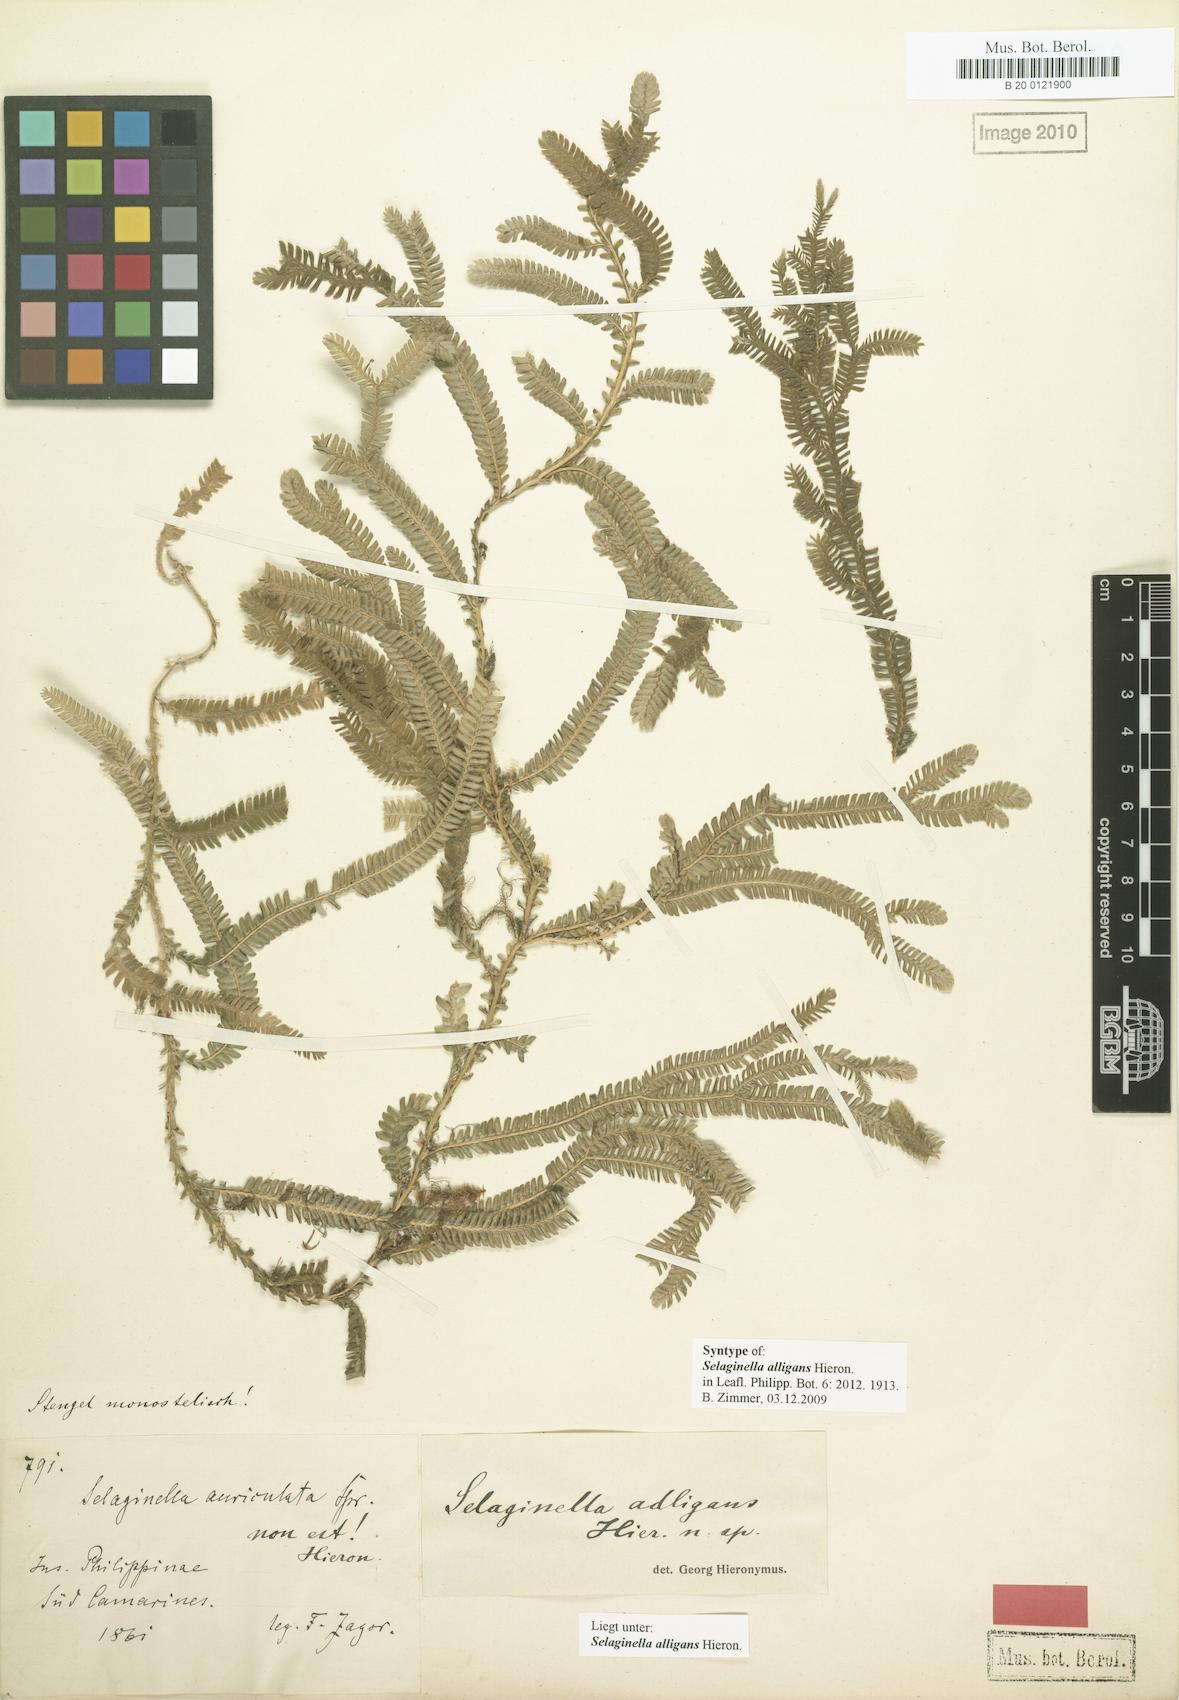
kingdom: Plantae
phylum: Tracheophyta
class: Lycopodiopsida
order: Selaginellales
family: Selaginellaceae
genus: Selaginella
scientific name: Selaginella alligans
